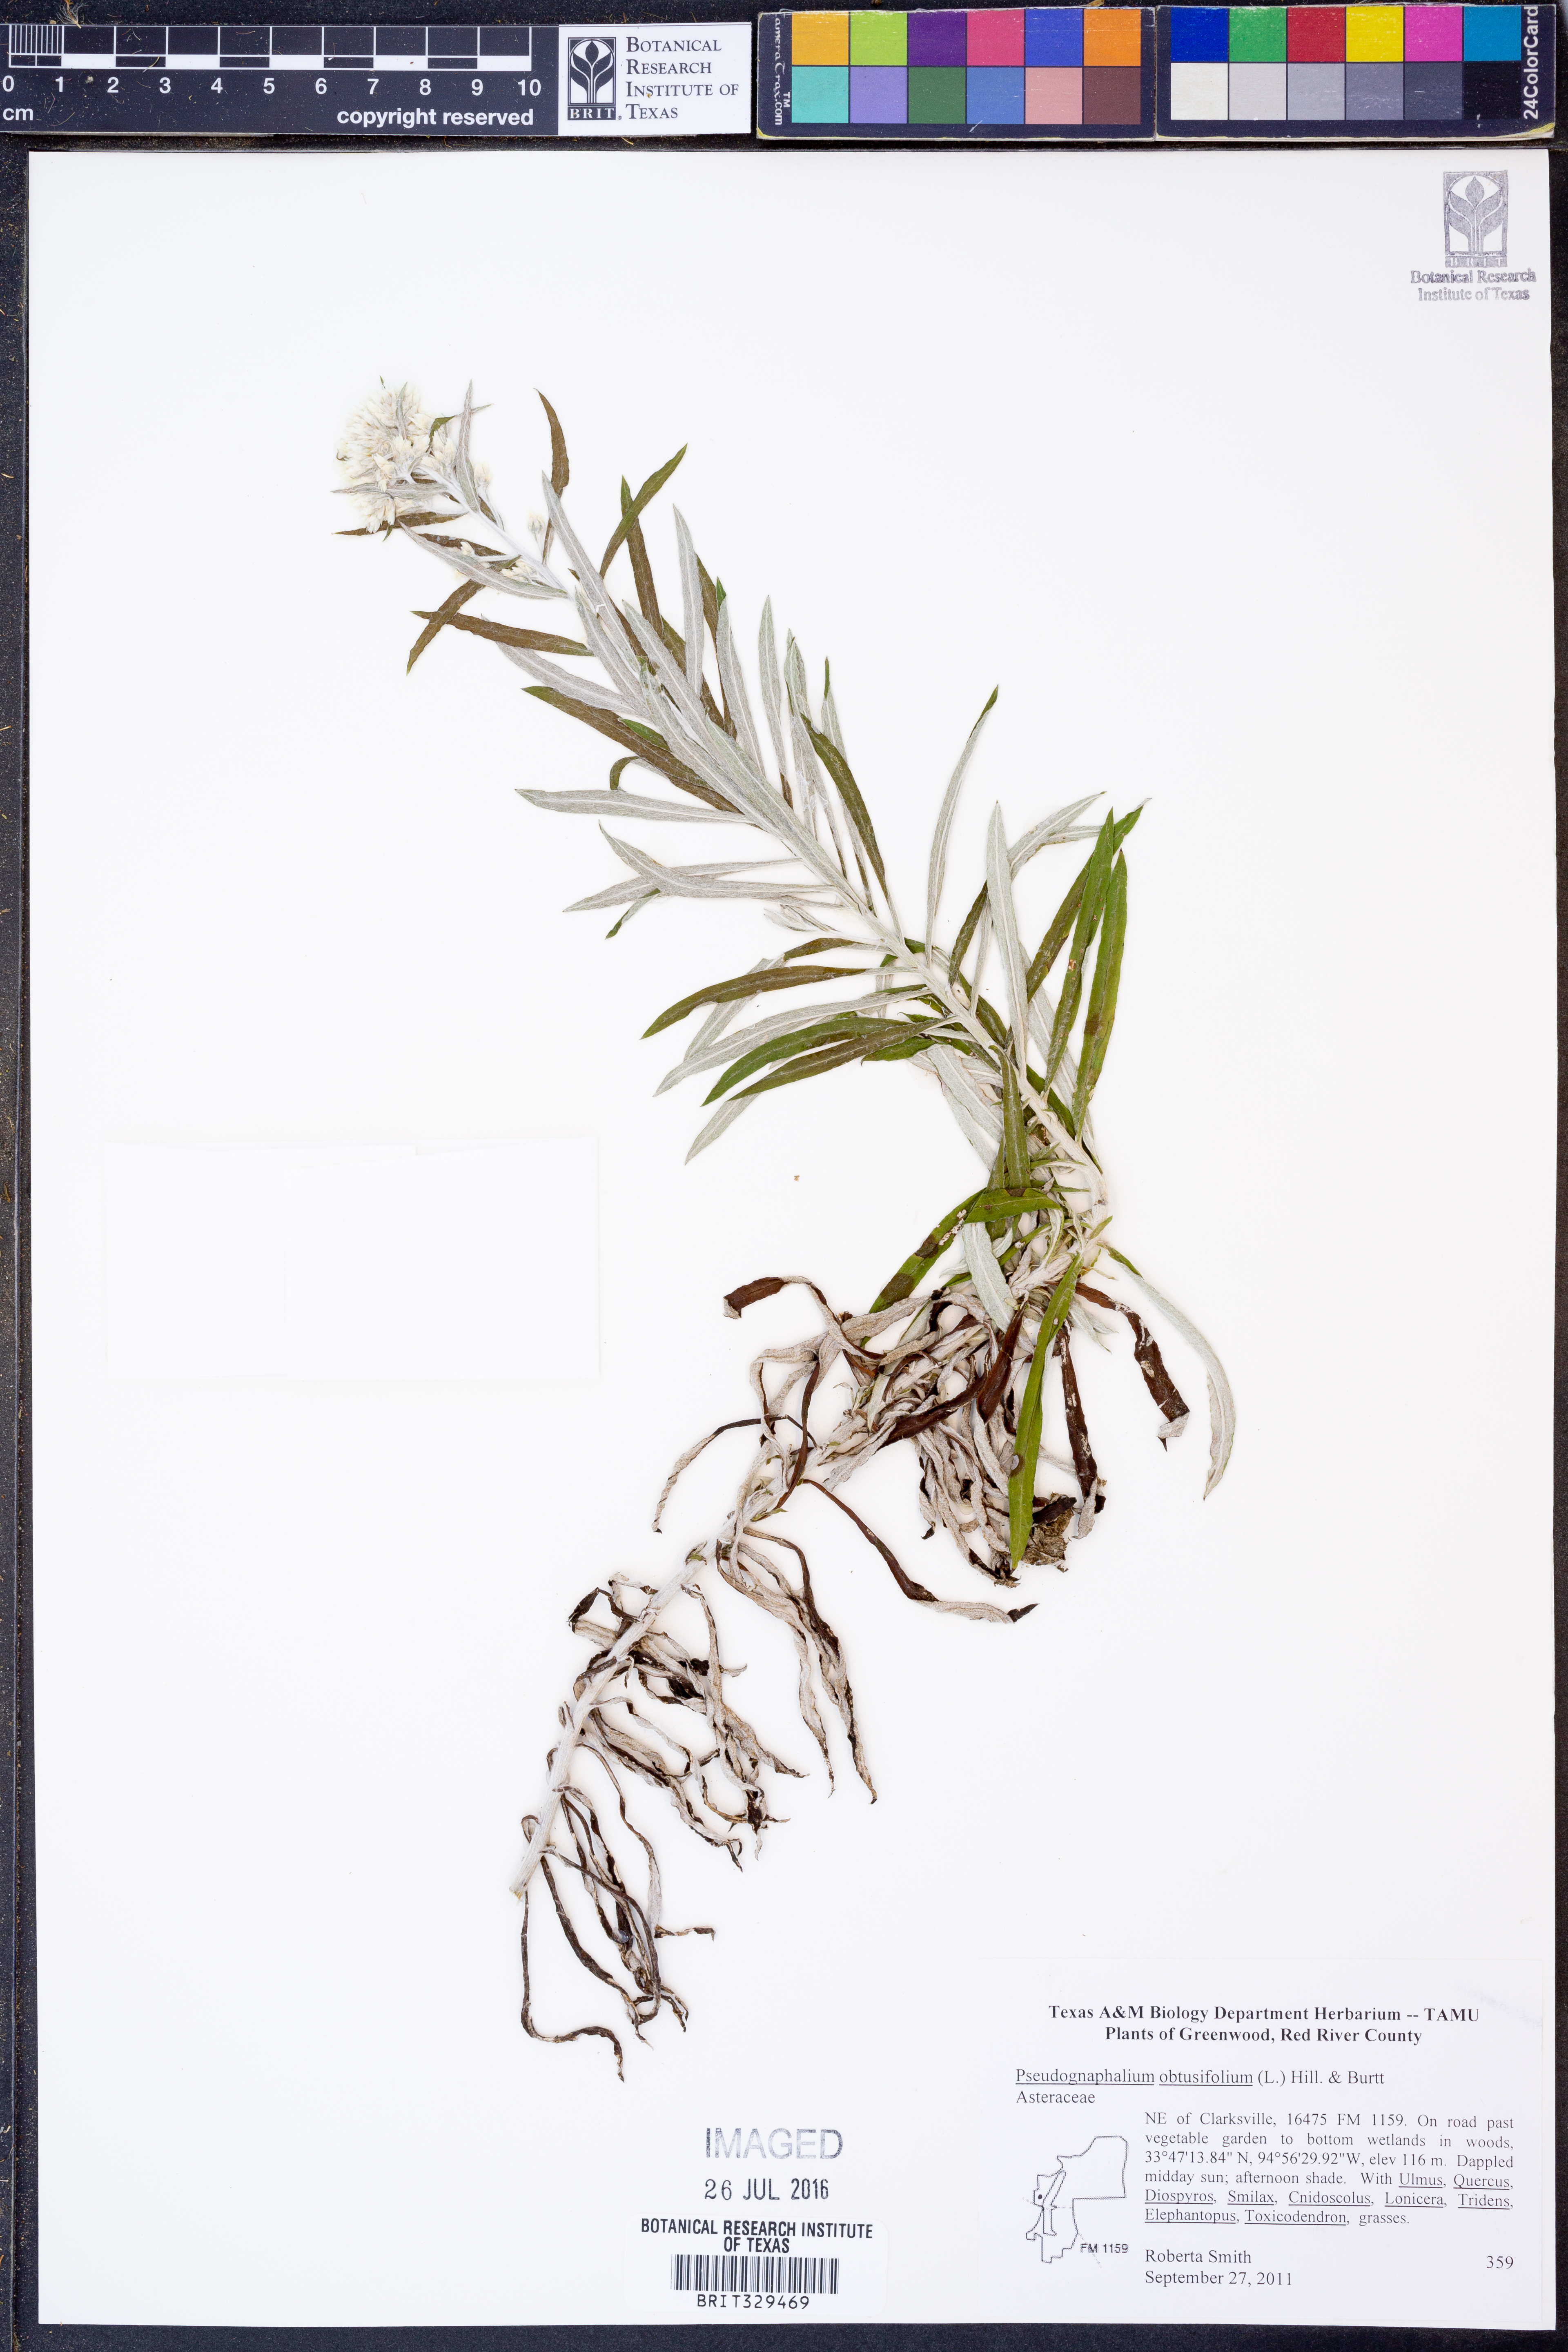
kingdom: Plantae
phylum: Tracheophyta
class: Magnoliopsida
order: Asterales
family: Asteraceae
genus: Pseudognaphalium
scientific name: Pseudognaphalium obtusifolium
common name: Eastern rabbit-tobacco
